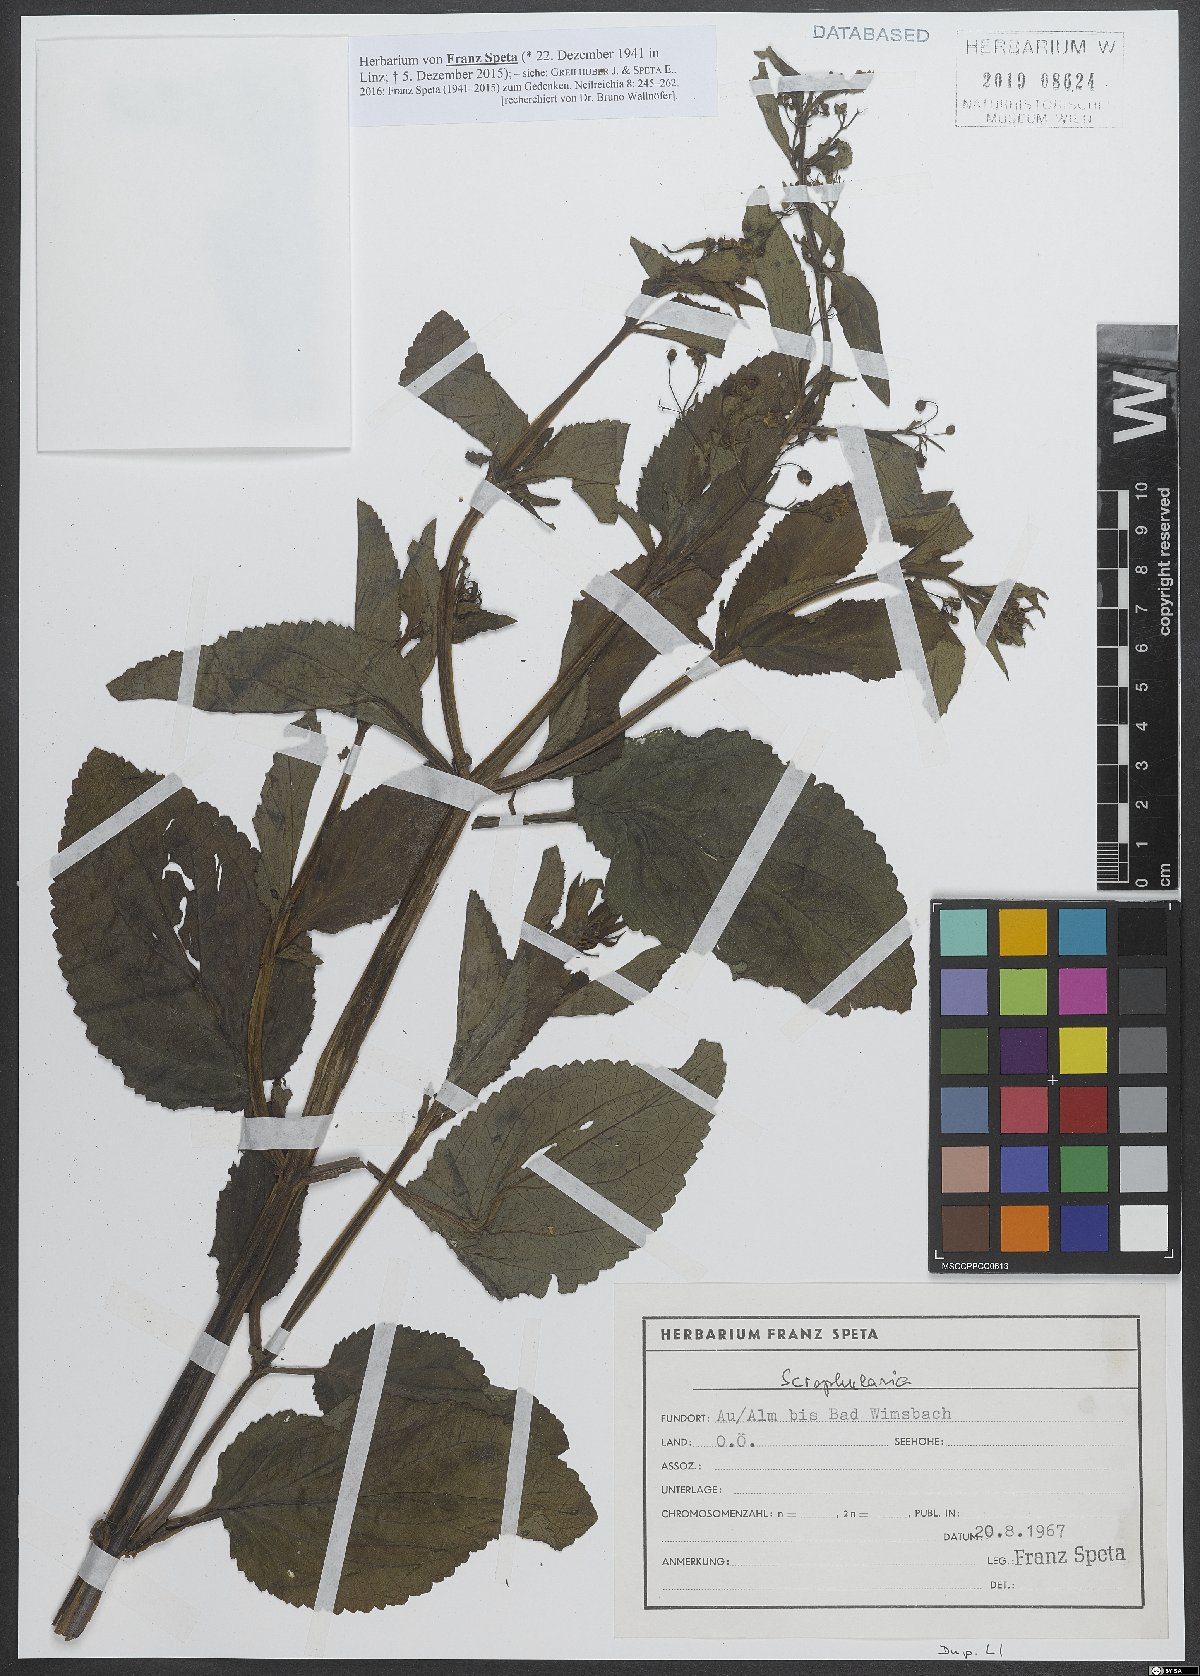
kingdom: Plantae
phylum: Bryophyta
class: Bryopsida
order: Hypnales
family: Scorpidiaceae
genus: Scorpidium
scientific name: Scorpidium revolvens
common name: Rusty hook moss
